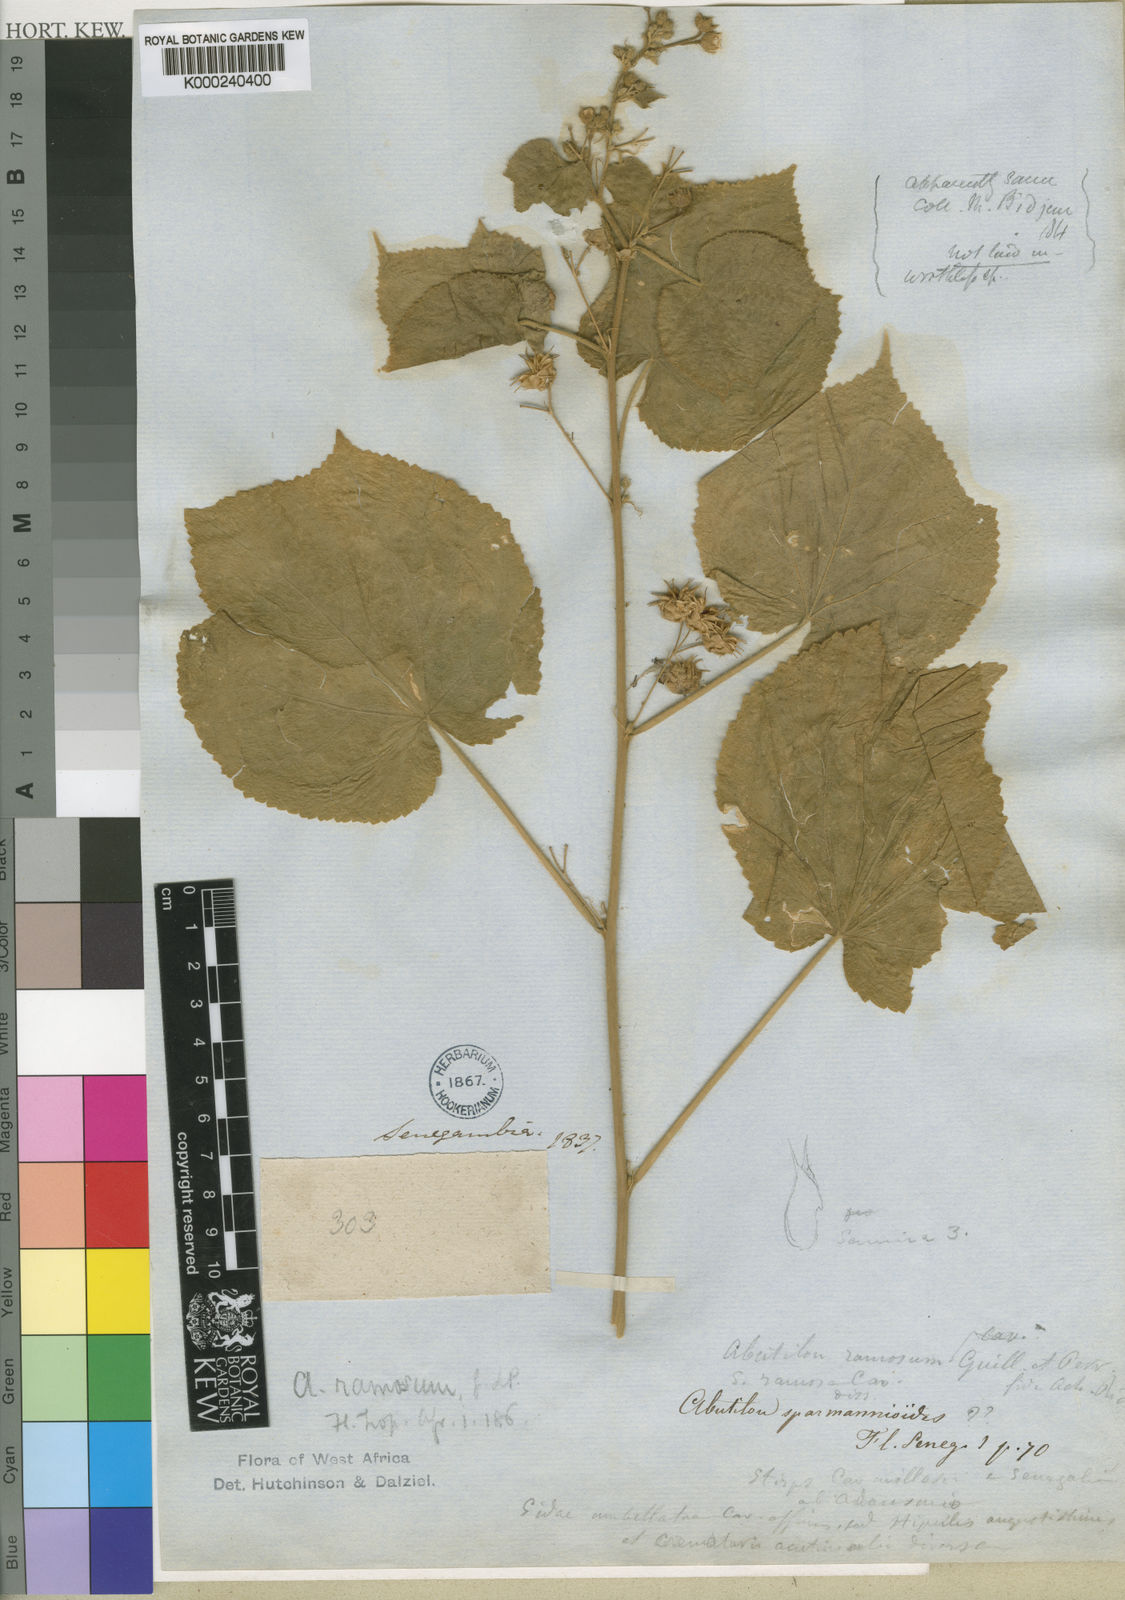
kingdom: Plantae
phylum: Tracheophyta
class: Magnoliopsida
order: Malvales
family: Malvaceae
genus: Abutilon
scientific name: Abutilon ramosum
